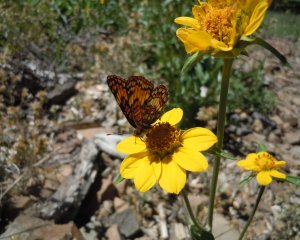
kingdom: Animalia
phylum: Arthropoda
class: Insecta
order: Lepidoptera
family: Nymphalidae
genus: Chlosyne
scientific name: Chlosyne hoffmanni
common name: Hoffmann's Checkerspot
